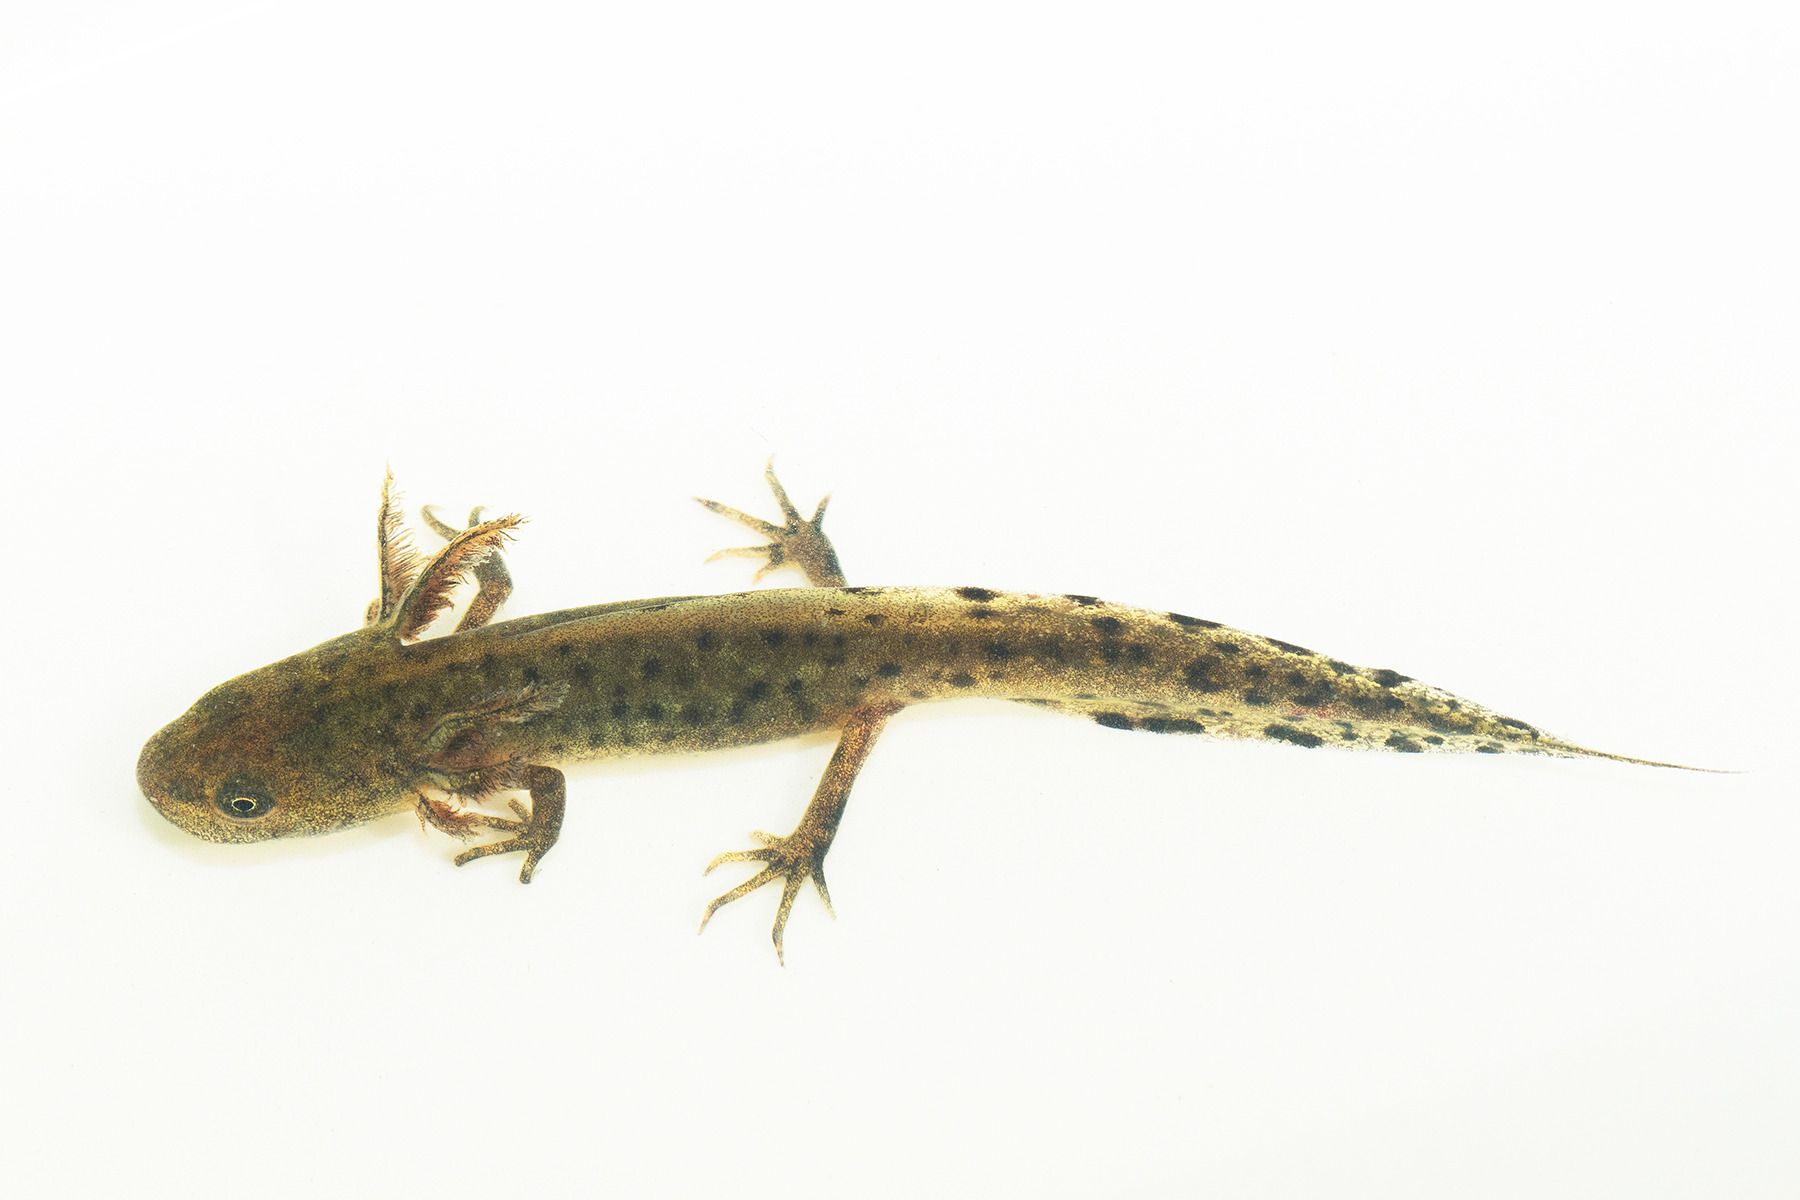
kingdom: Animalia
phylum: Chordata
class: Amphibia
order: Caudata
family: Salamandridae
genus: Triturus
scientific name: Triturus cristatus
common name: Stor vandsalamander
